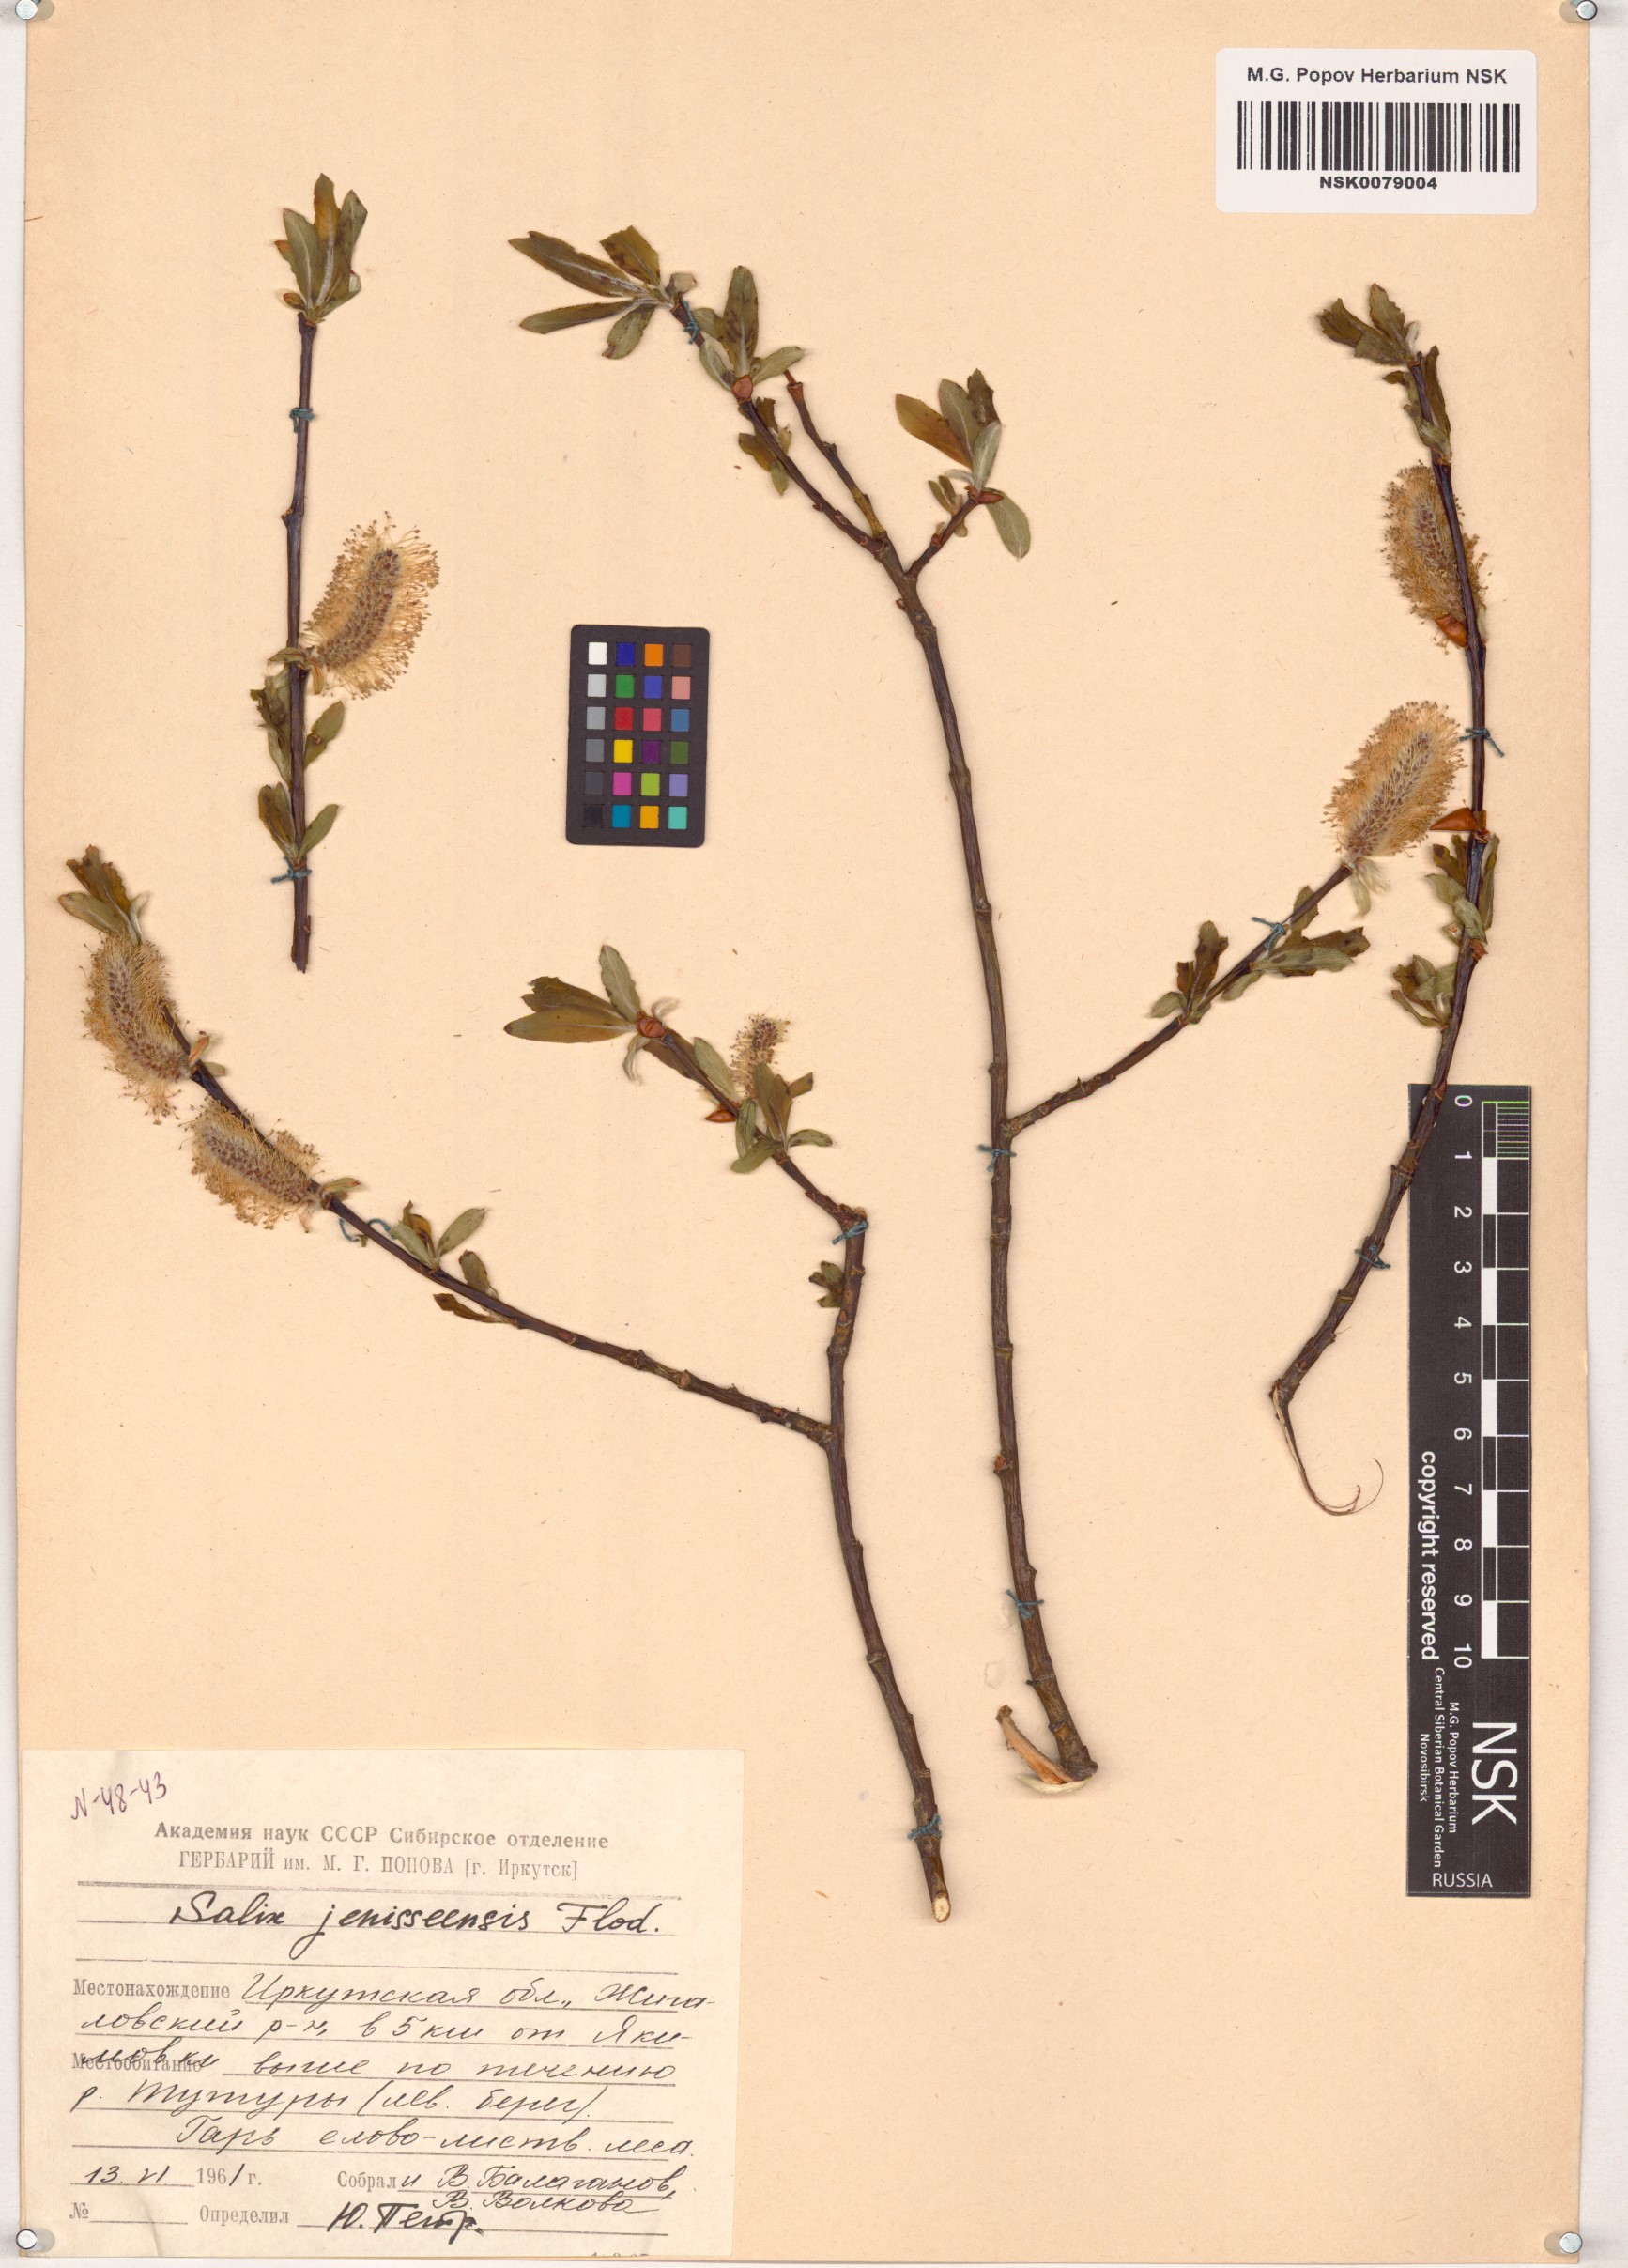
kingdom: Plantae
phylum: Tracheophyta
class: Magnoliopsida
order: Malpighiales
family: Salicaceae
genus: Salix
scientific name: Salix jenisseensis
